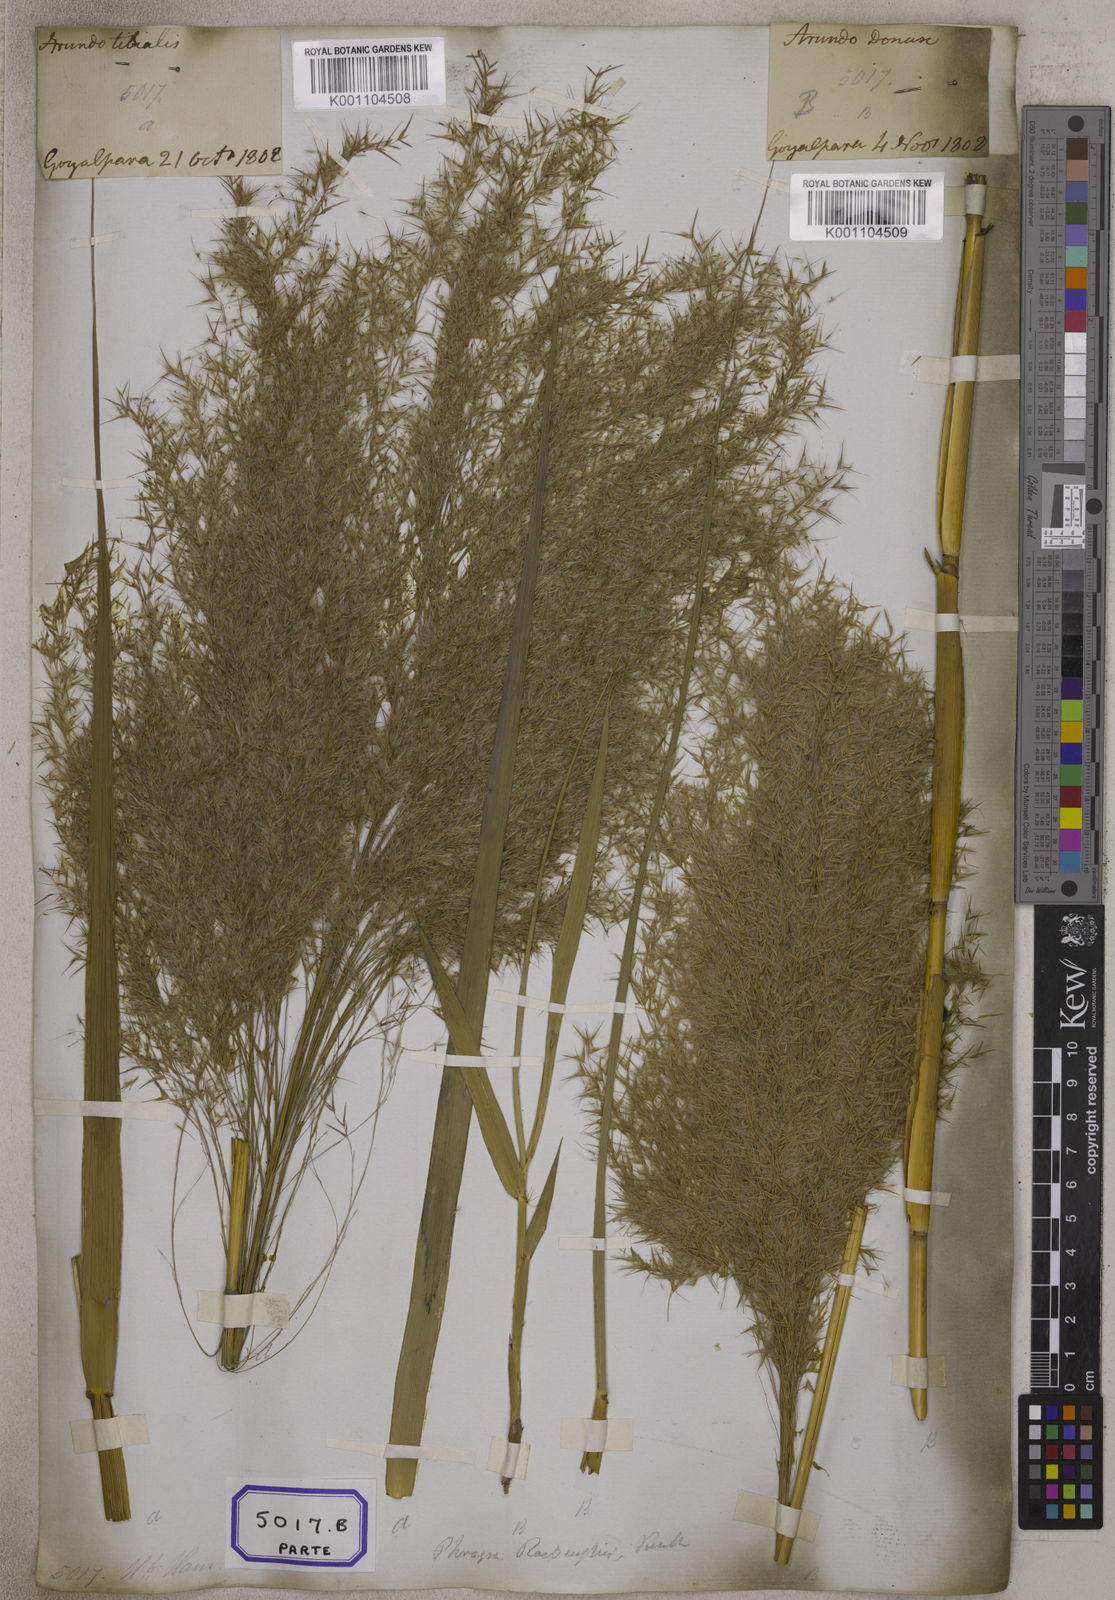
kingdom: Plantae
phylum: Tracheophyta
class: Liliopsida
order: Poales
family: Poaceae
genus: Arundo
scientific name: Arundo
